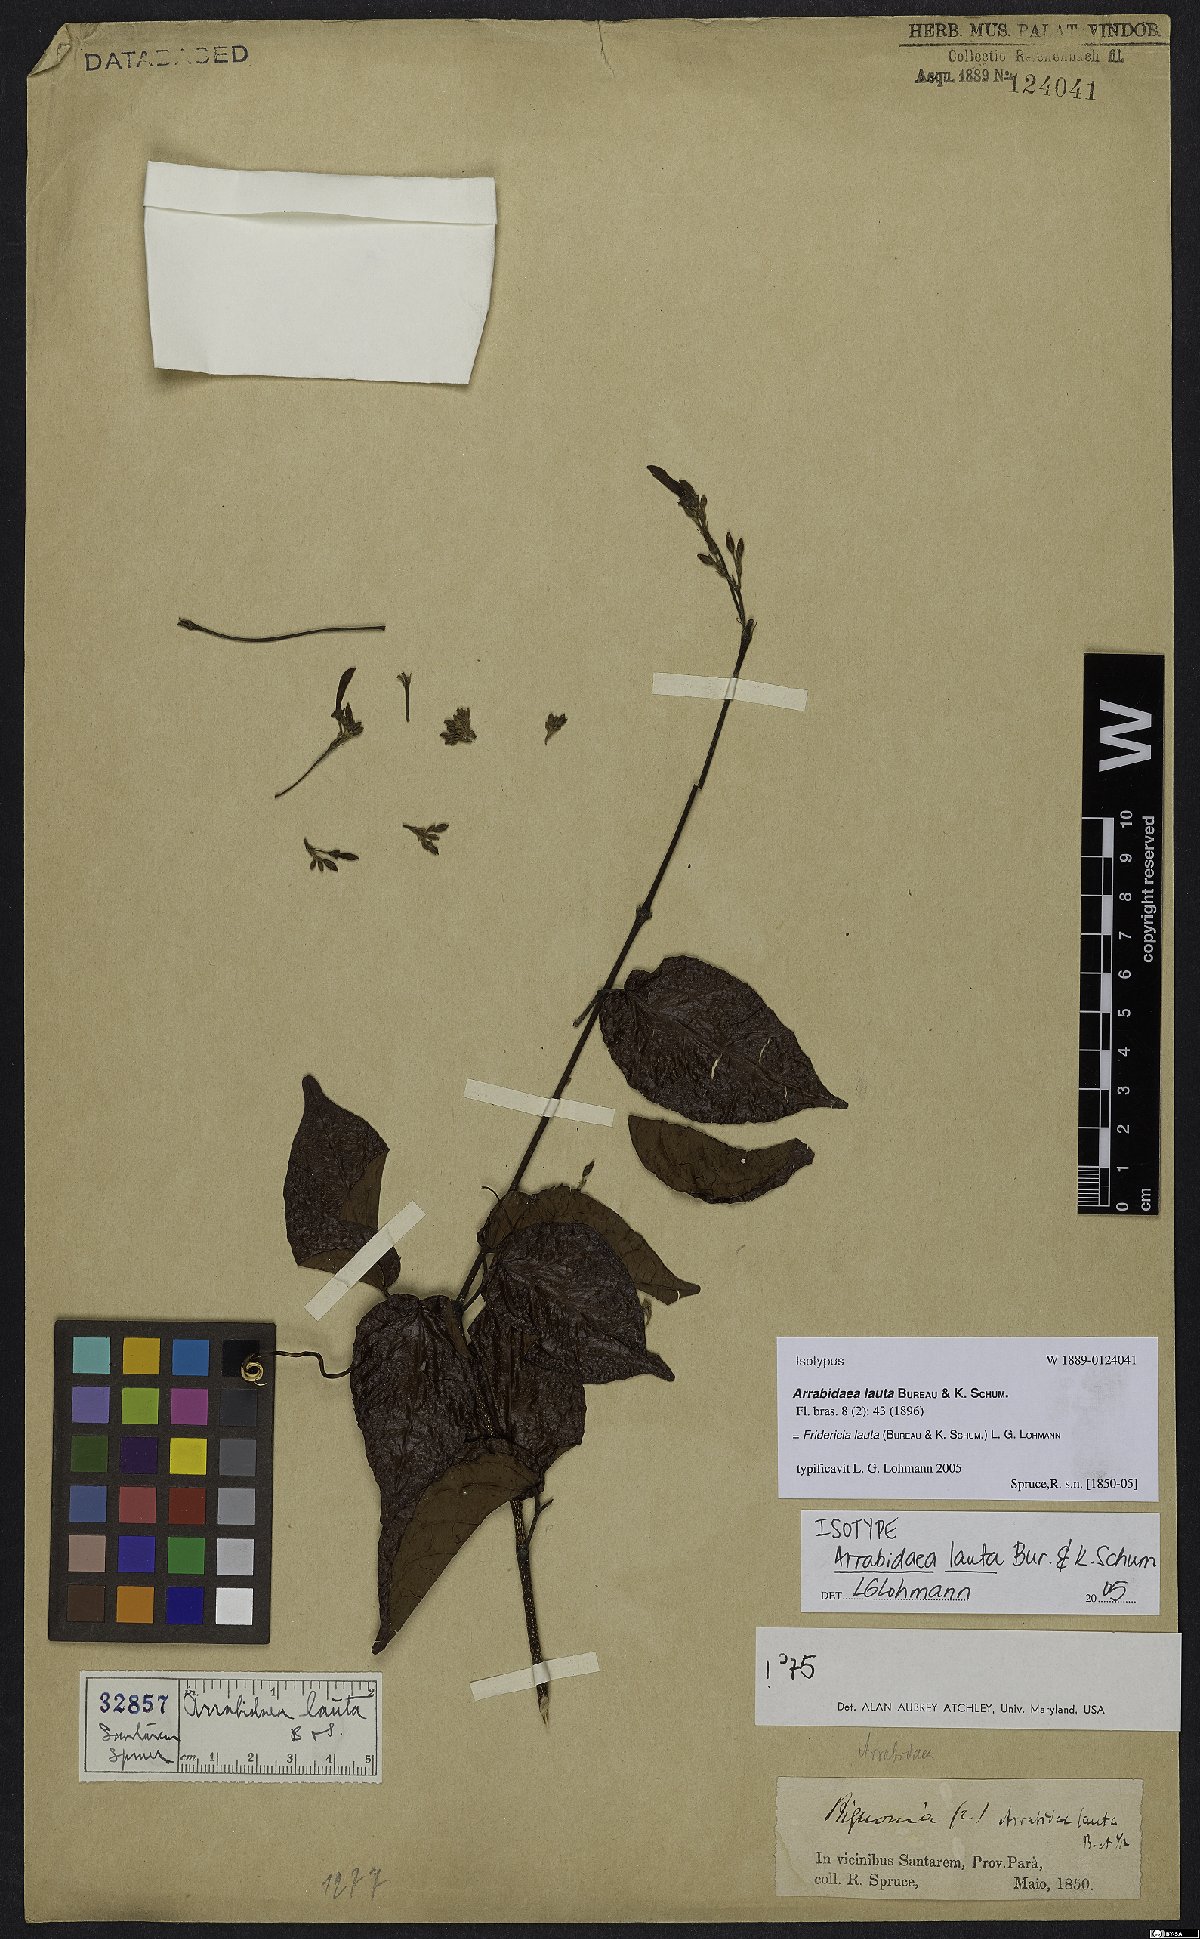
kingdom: Plantae
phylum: Tracheophyta
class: Magnoliopsida
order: Lamiales
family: Bignoniaceae
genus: Fridericia
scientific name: Fridericia lauta
